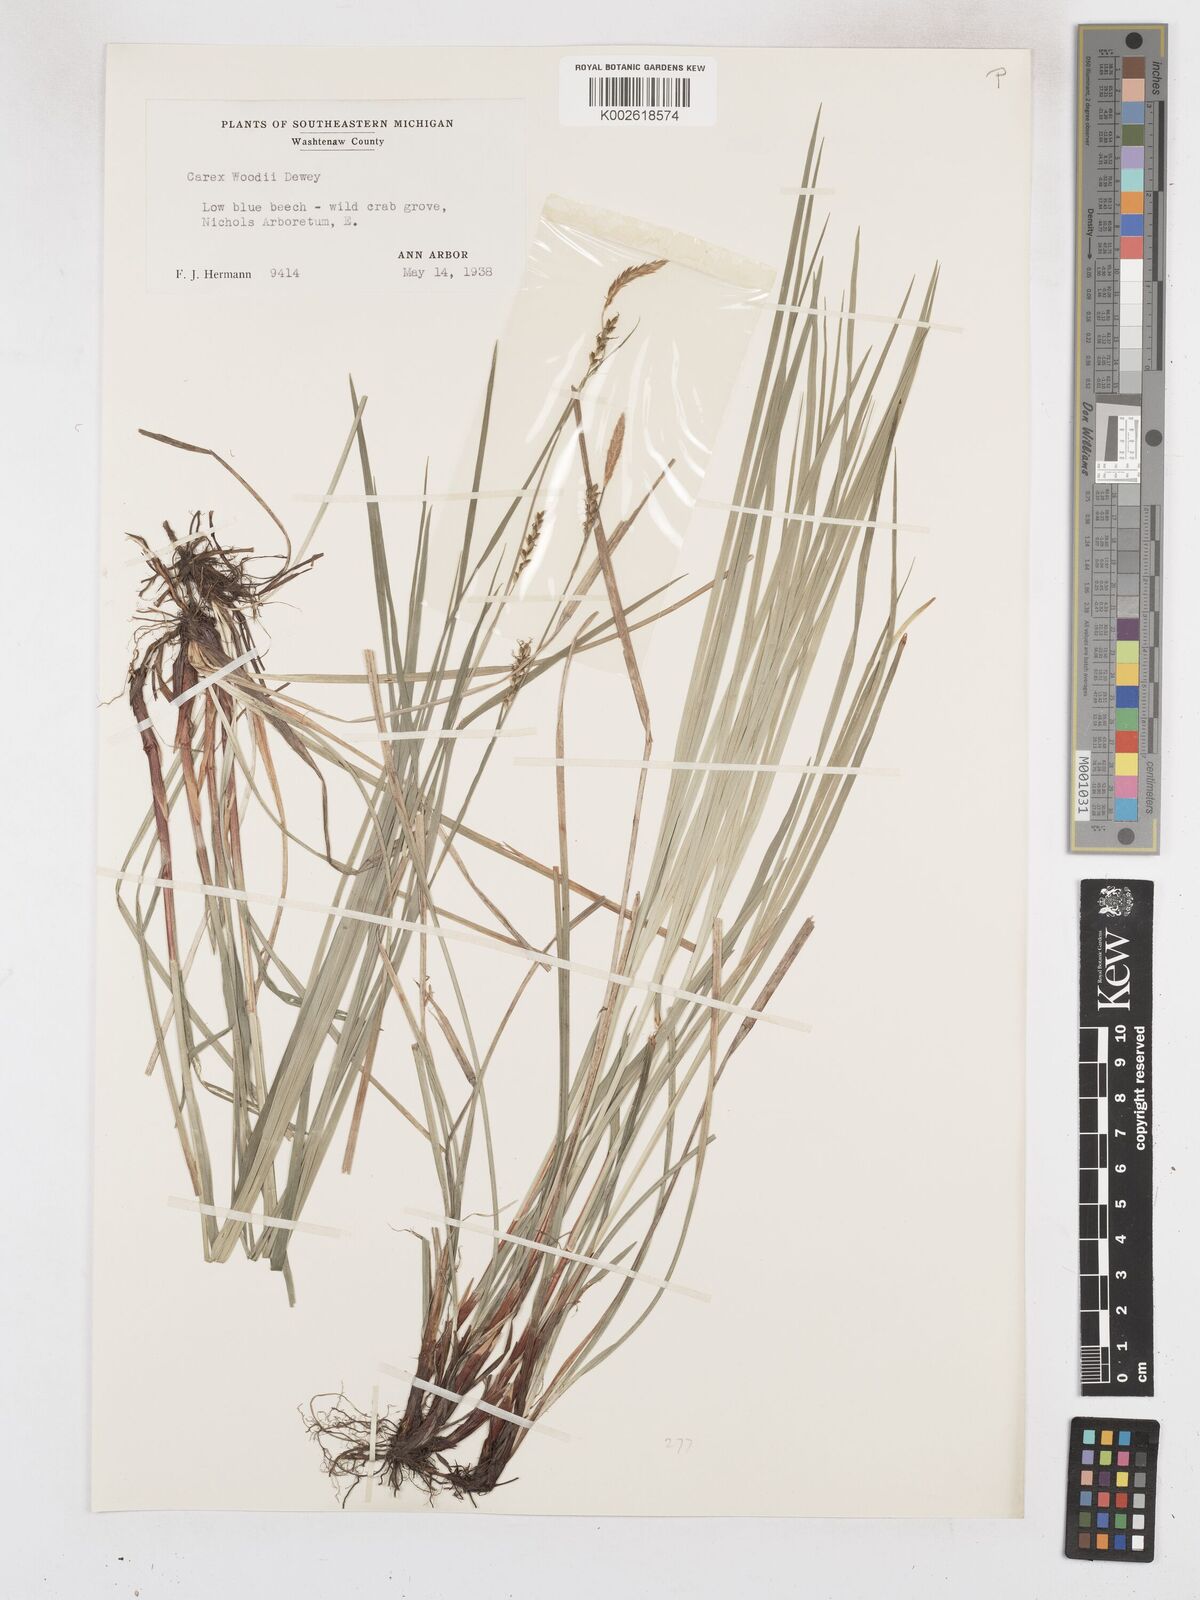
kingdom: Plantae
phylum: Tracheophyta
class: Liliopsida
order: Poales
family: Cyperaceae
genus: Carex
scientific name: Carex woodii
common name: Wood's sedge
